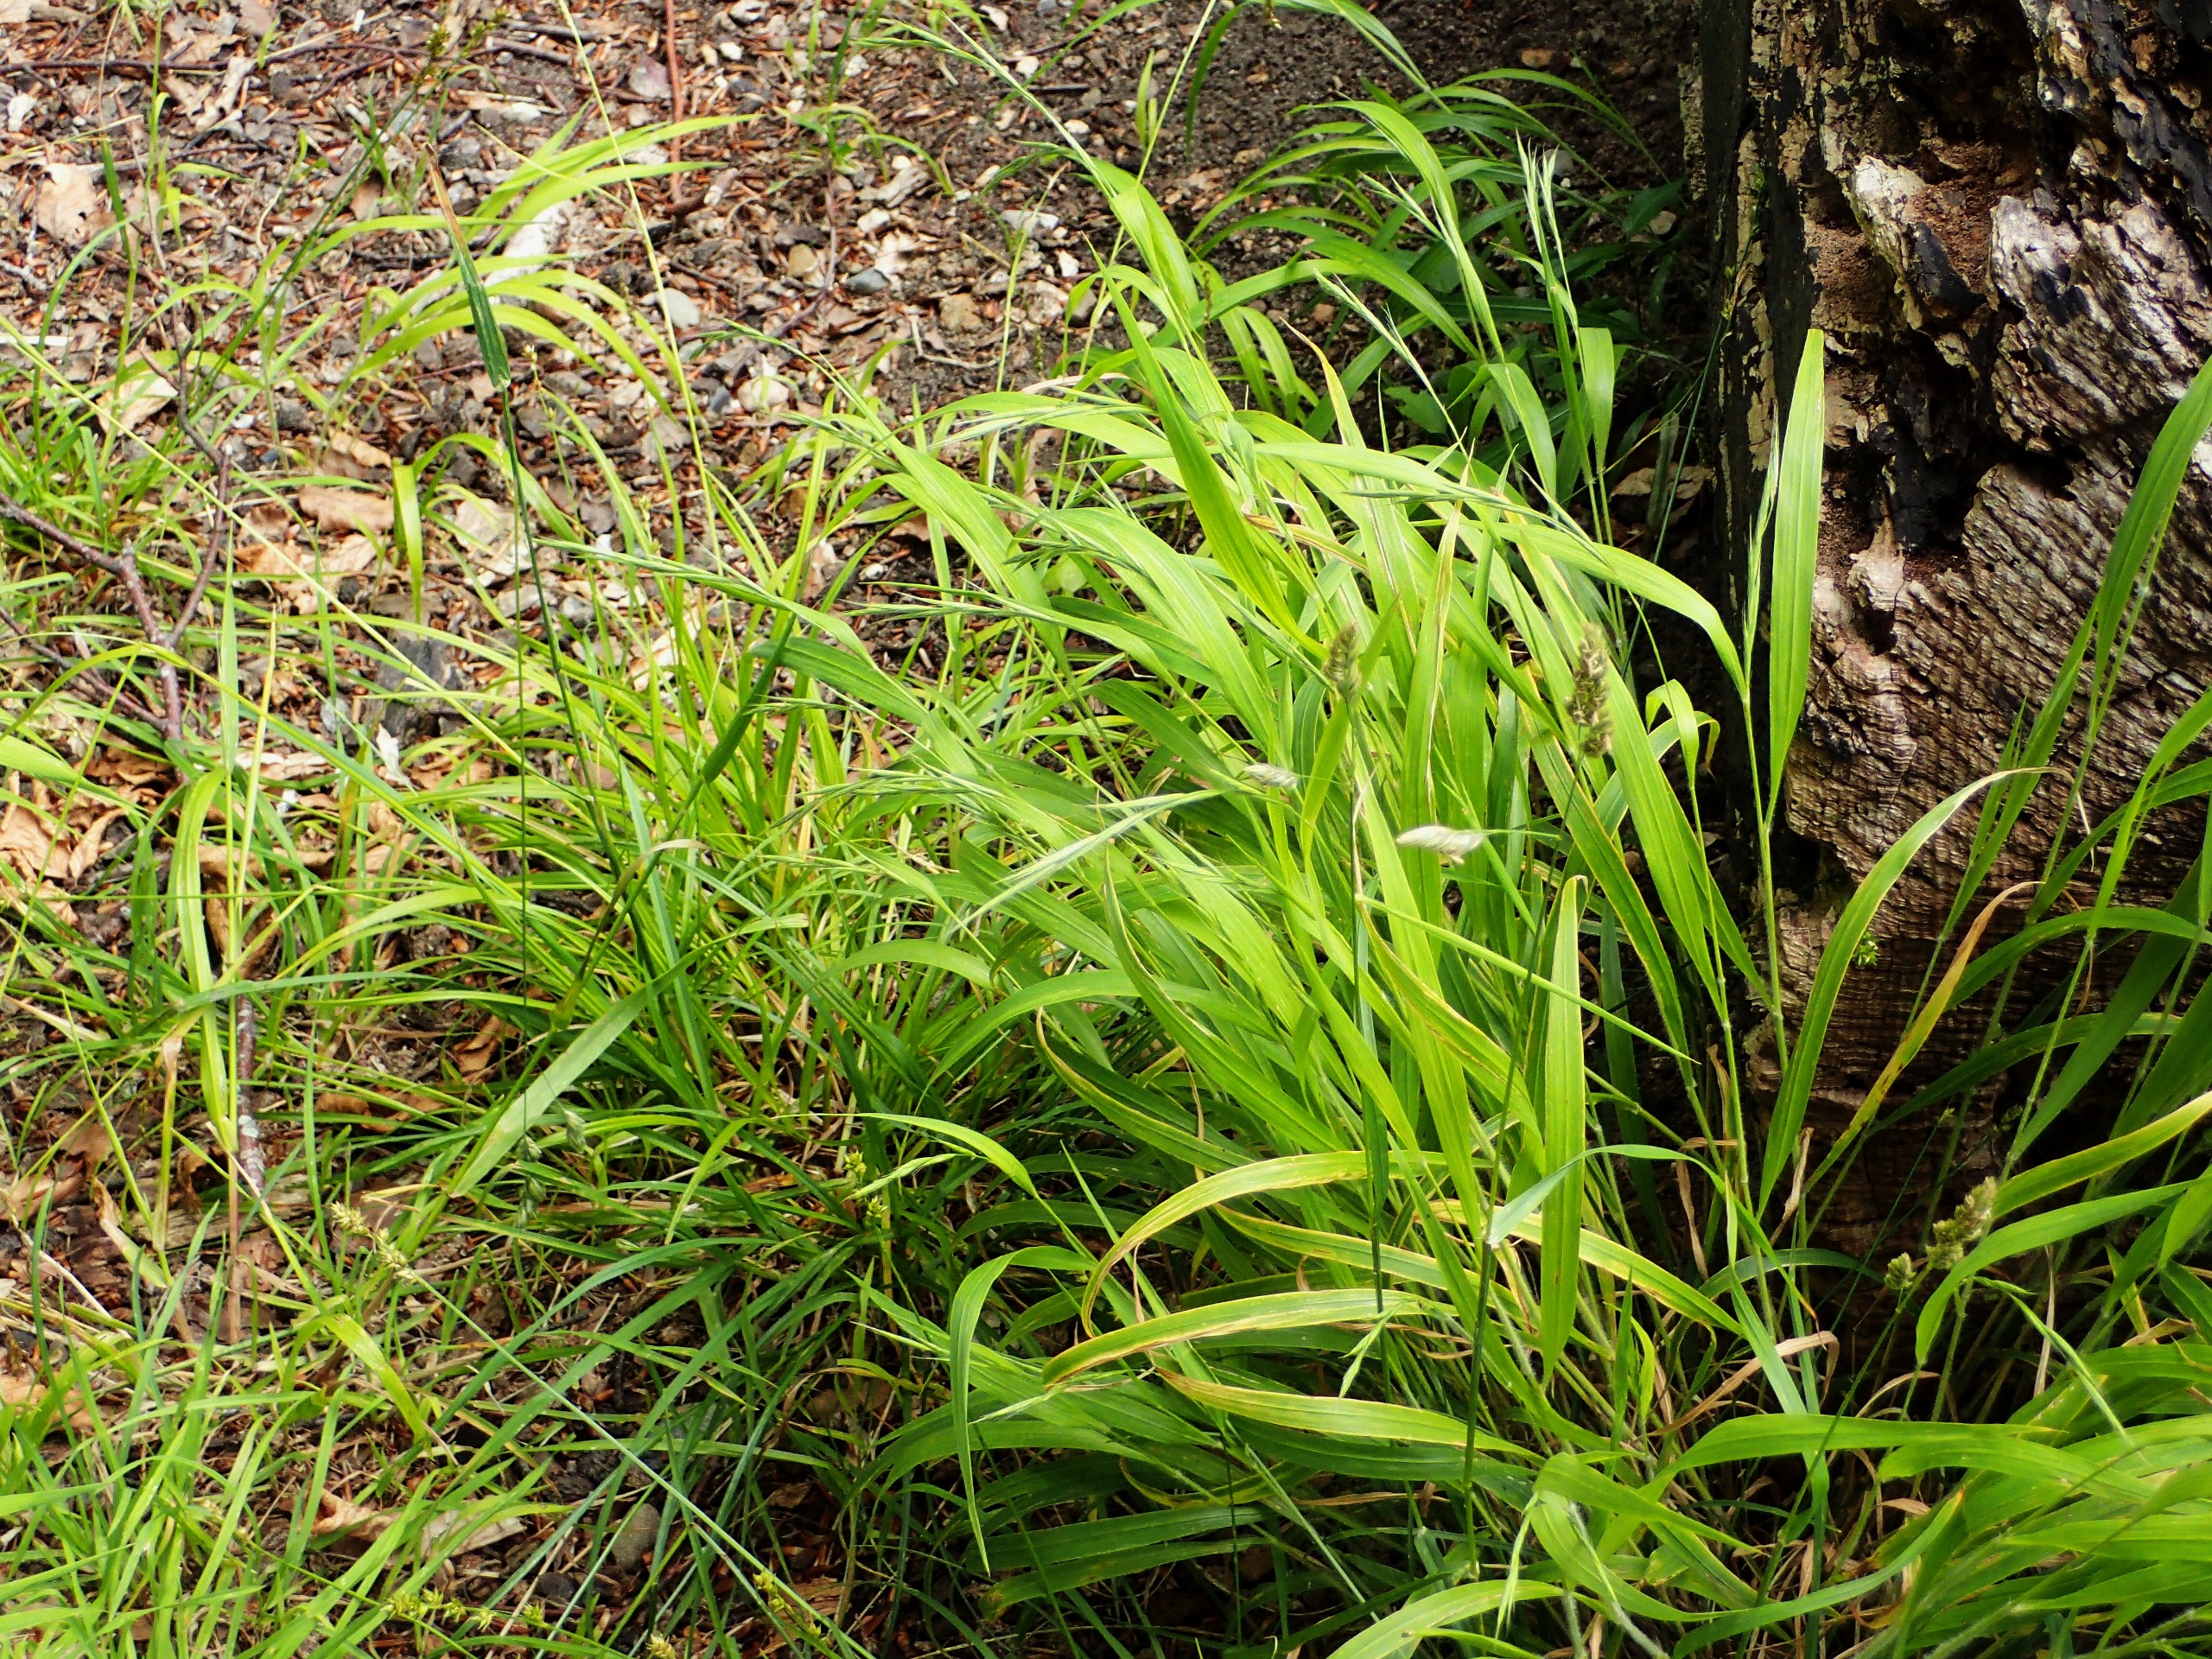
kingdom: Plantae
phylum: Tracheophyta
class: Liliopsida
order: Poales
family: Poaceae
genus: Brachypodium
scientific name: Brachypodium sylvaticum
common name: Skov-stilkaks
